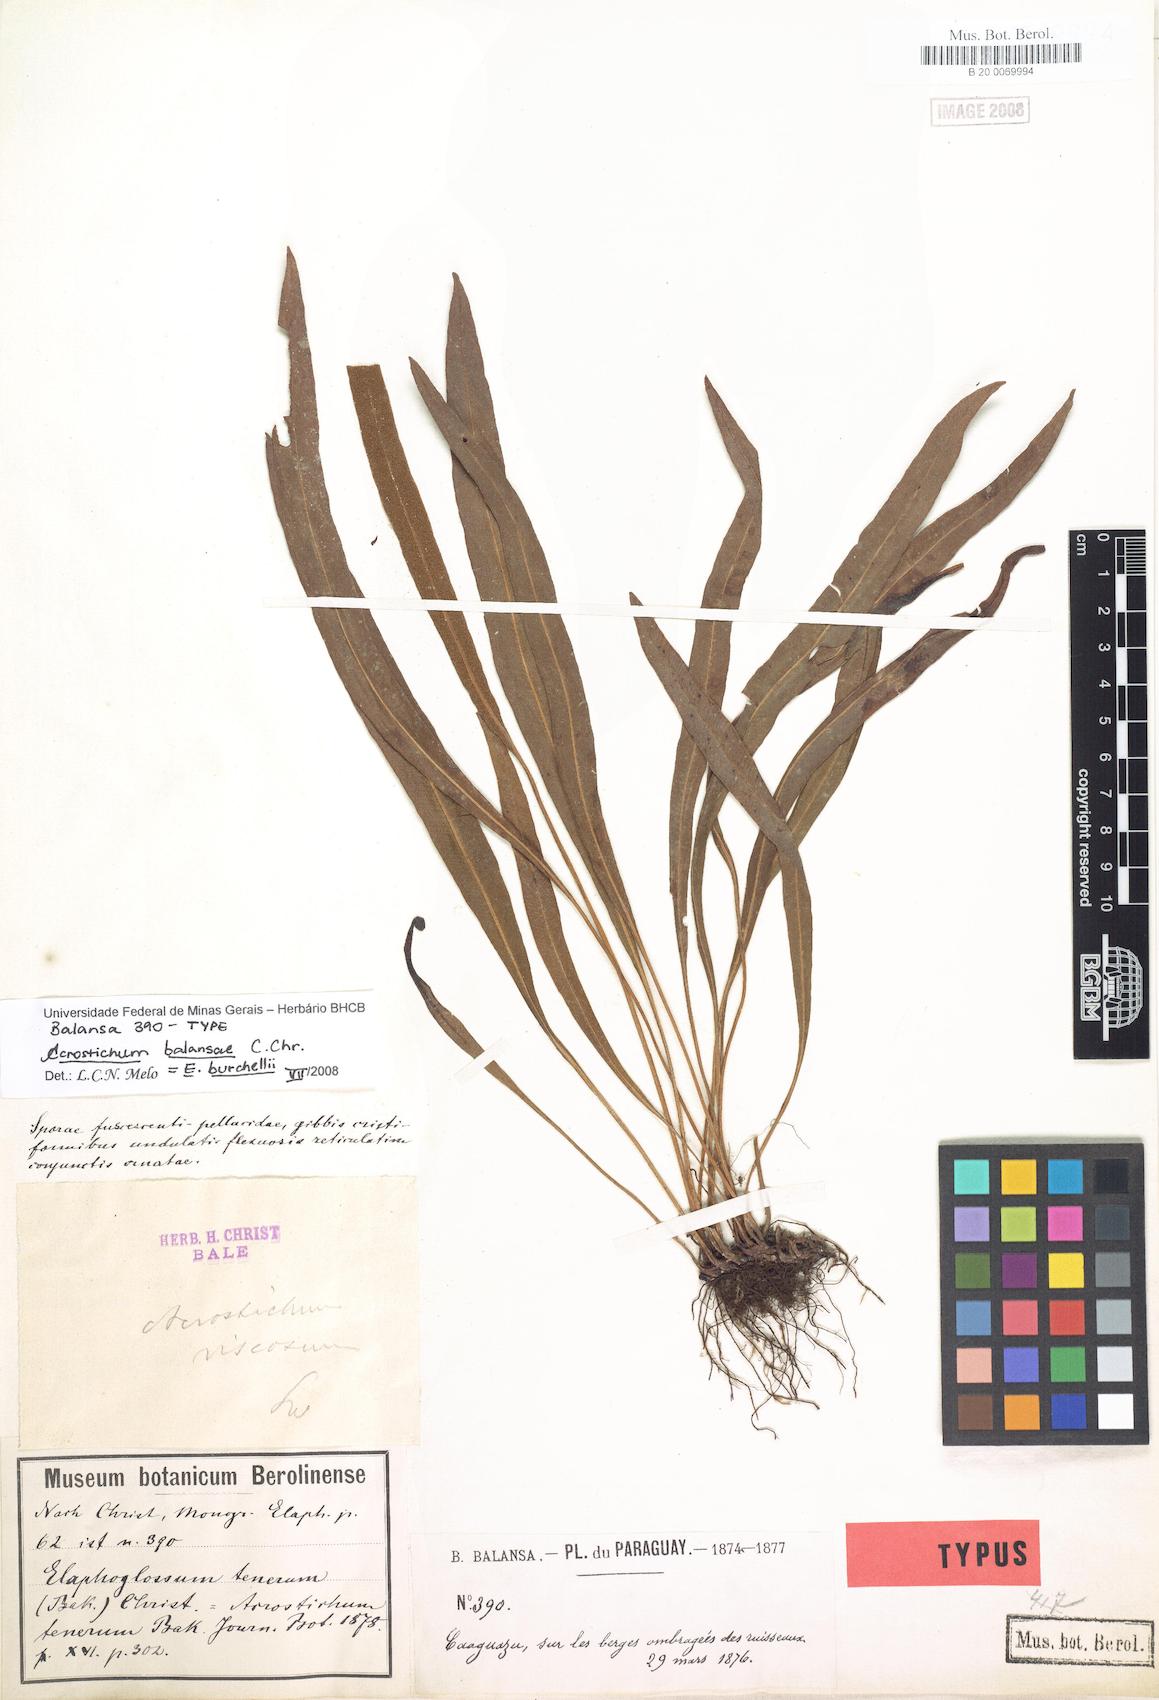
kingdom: Plantae
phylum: Tracheophyta
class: Polypodiopsida
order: Polypodiales
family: Dryopteridaceae
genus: Elaphoglossum
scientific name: Elaphoglossum burchellii
